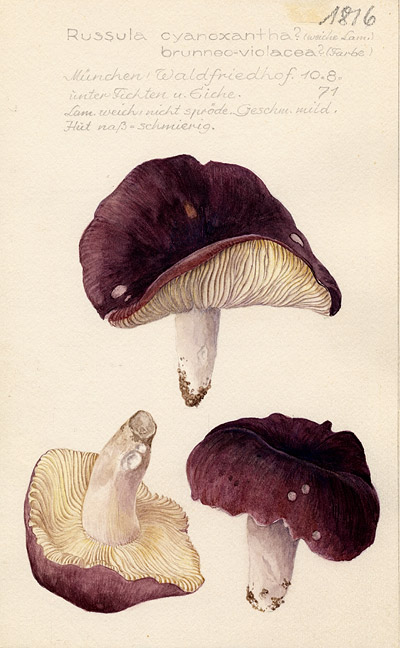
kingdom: Fungi
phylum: Basidiomycota
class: Agaricomycetes
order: Russulales
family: Russulaceae
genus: Russula
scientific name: Russula cyanoxantha
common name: Charcoal burner
